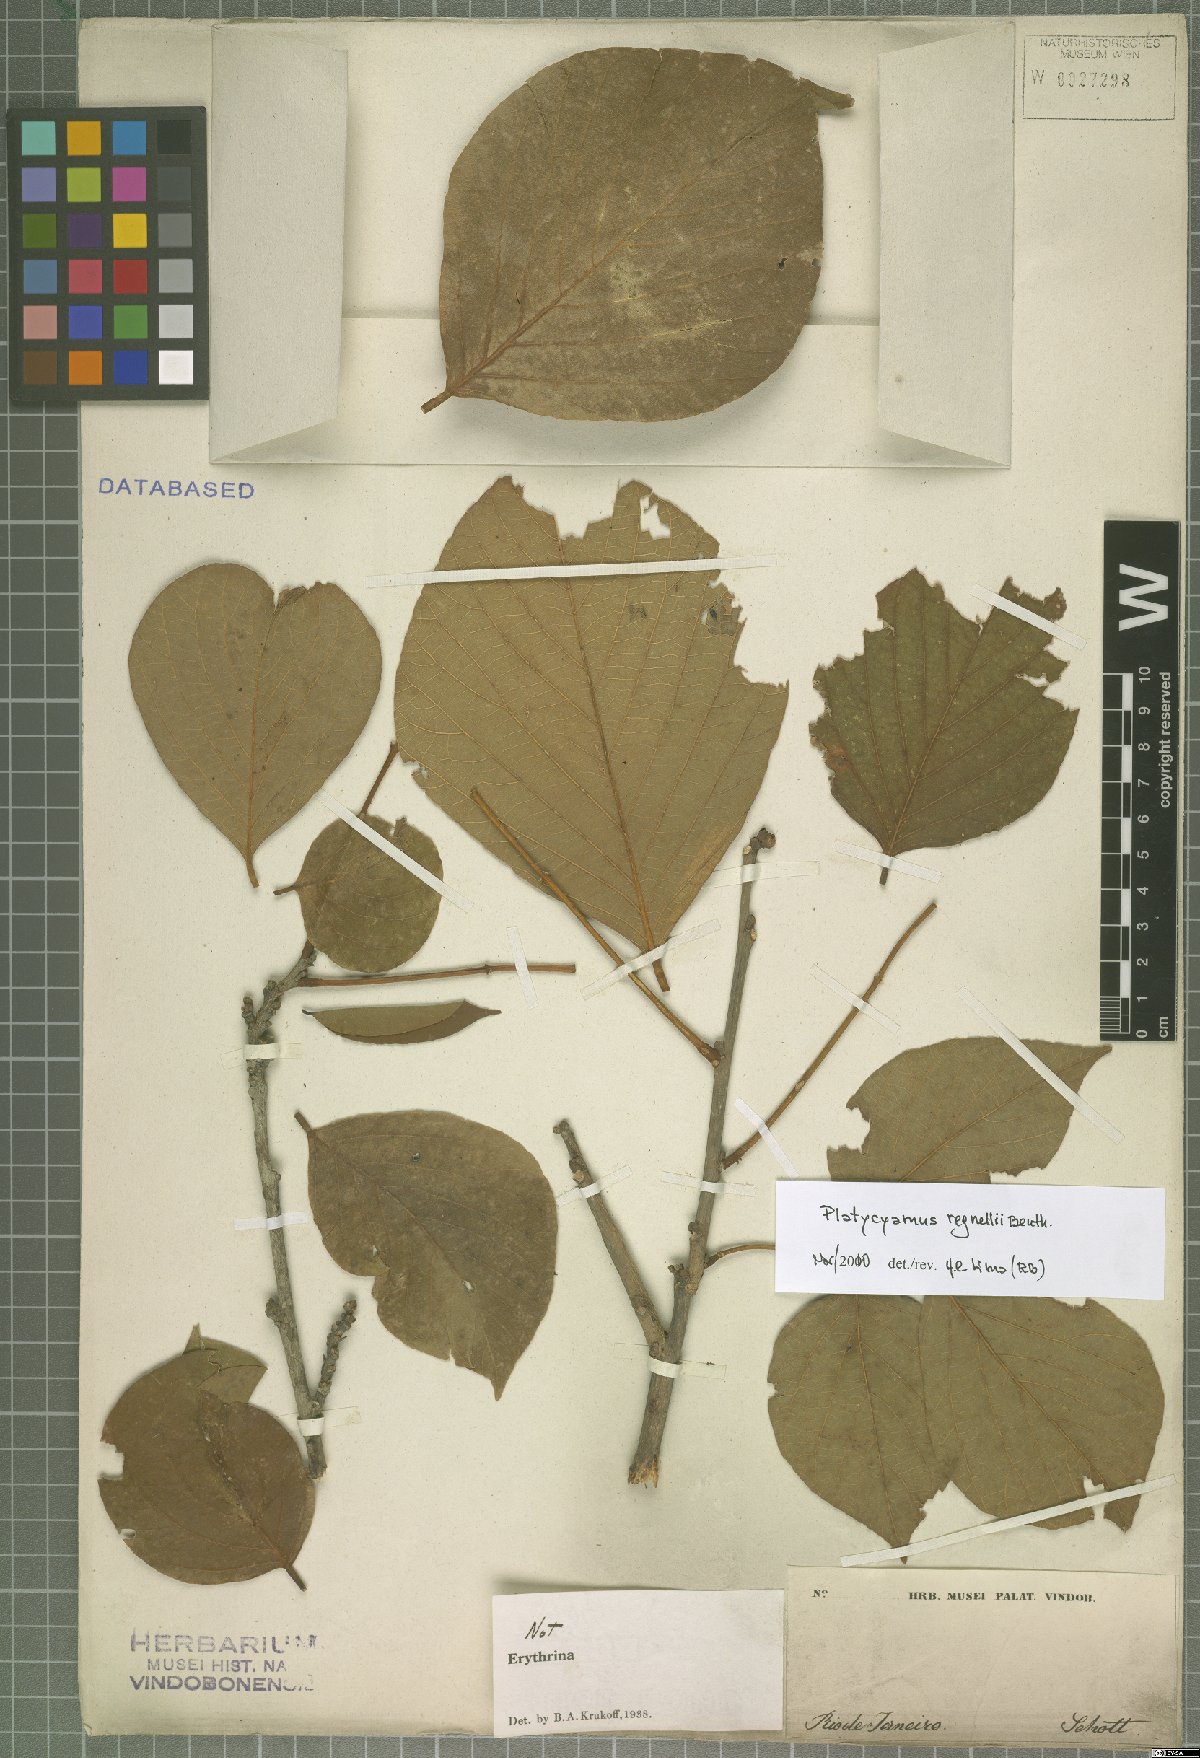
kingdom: Plantae
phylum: Tracheophyta
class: Magnoliopsida
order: Fabales
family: Fabaceae
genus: Platycyamus
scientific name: Platycyamus regnellii
